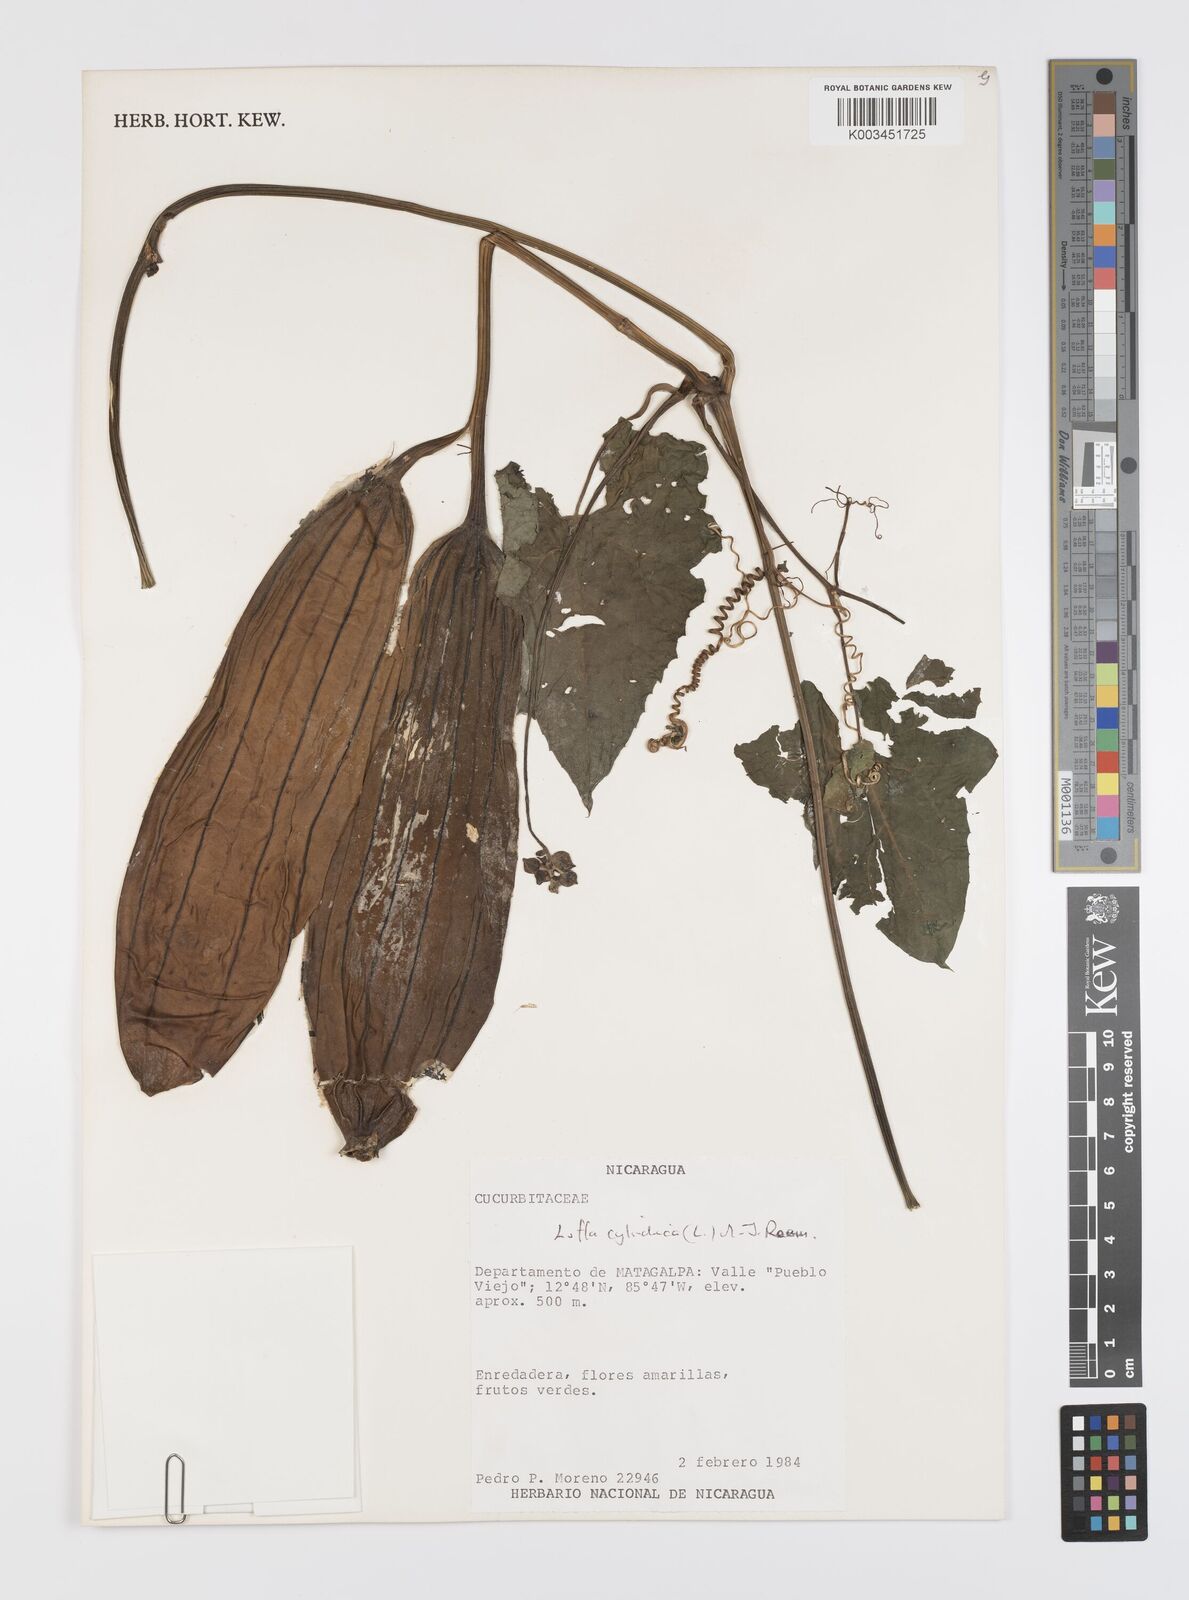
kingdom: Plantae
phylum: Tracheophyta
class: Magnoliopsida
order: Cucurbitales
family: Cucurbitaceae
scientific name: Cucurbitaceae
